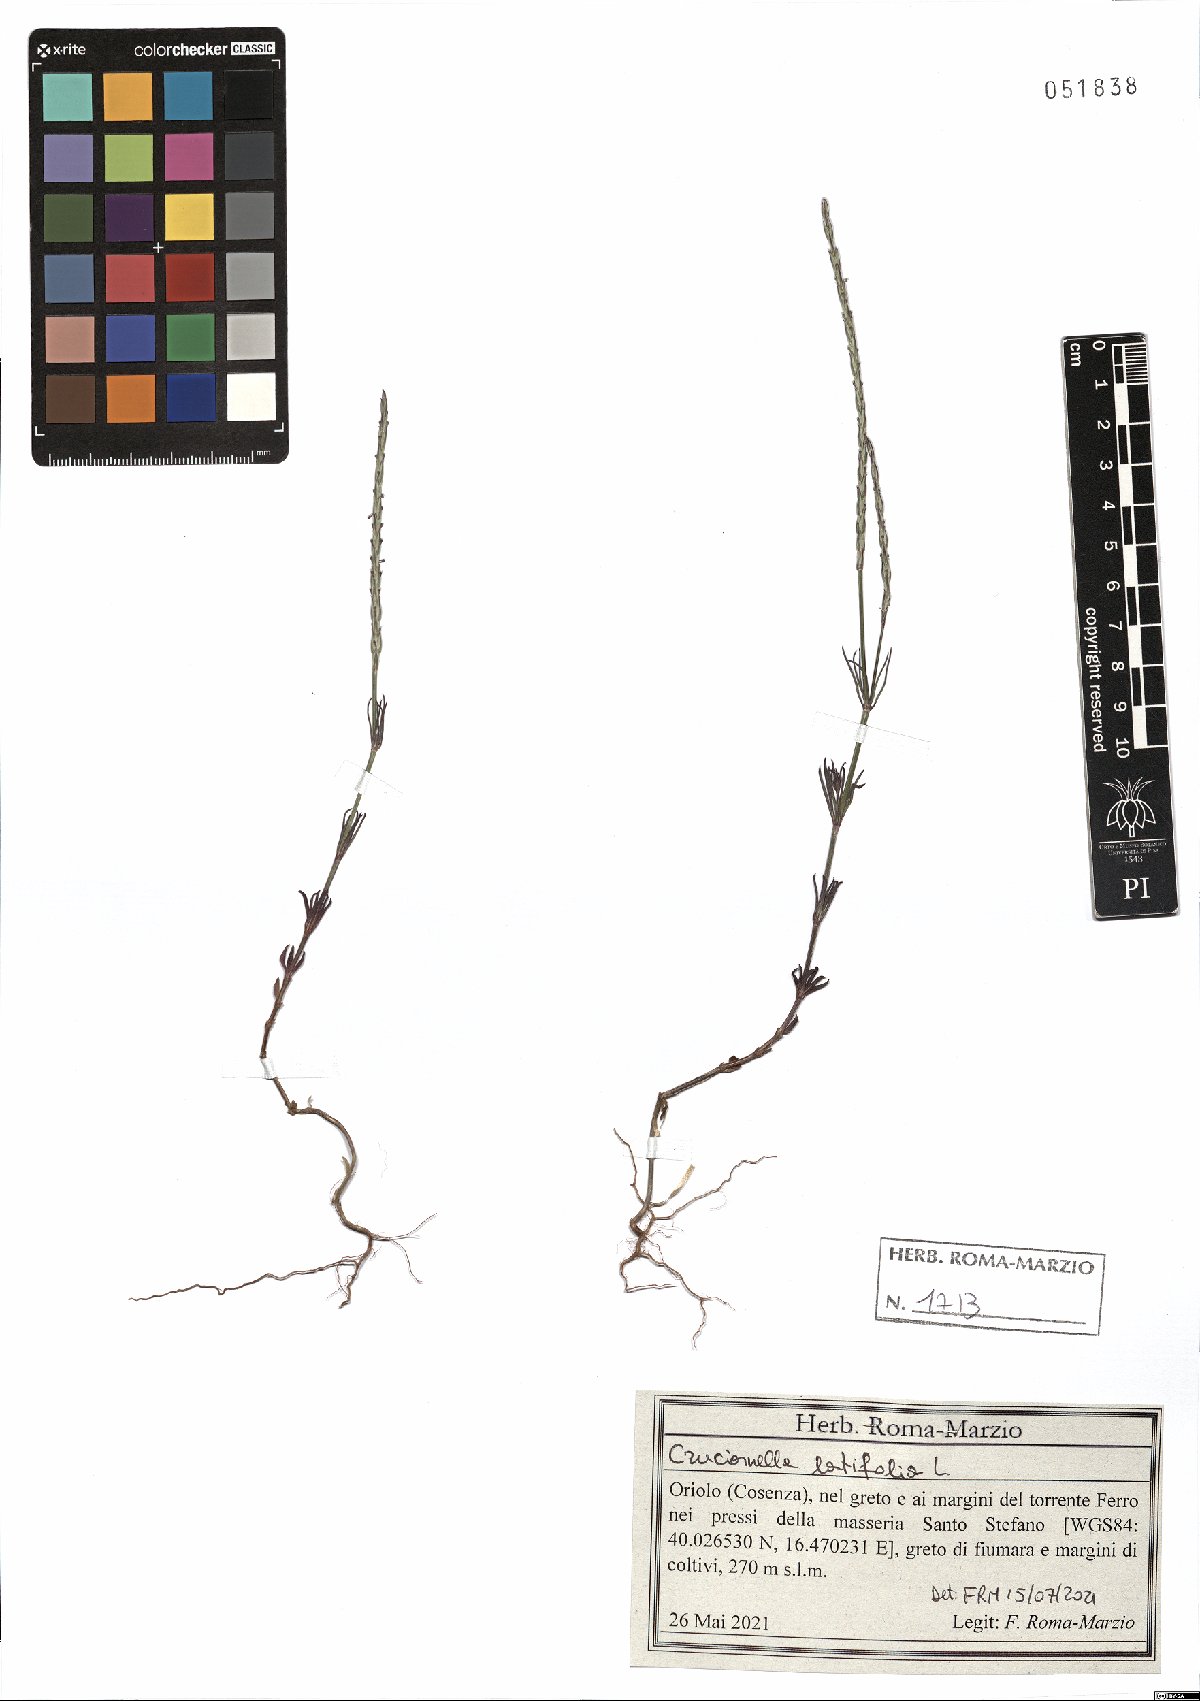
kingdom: Plantae
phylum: Tracheophyta
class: Magnoliopsida
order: Gentianales
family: Rubiaceae
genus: Crucianella
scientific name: Crucianella latifolia
